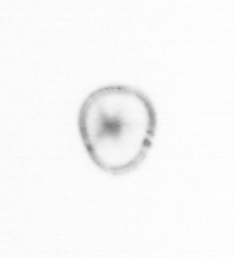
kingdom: Chromista
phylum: Myzozoa
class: Dinophyceae
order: Noctilucales
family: Noctilucaceae
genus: Noctiluca
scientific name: Noctiluca scintillans
